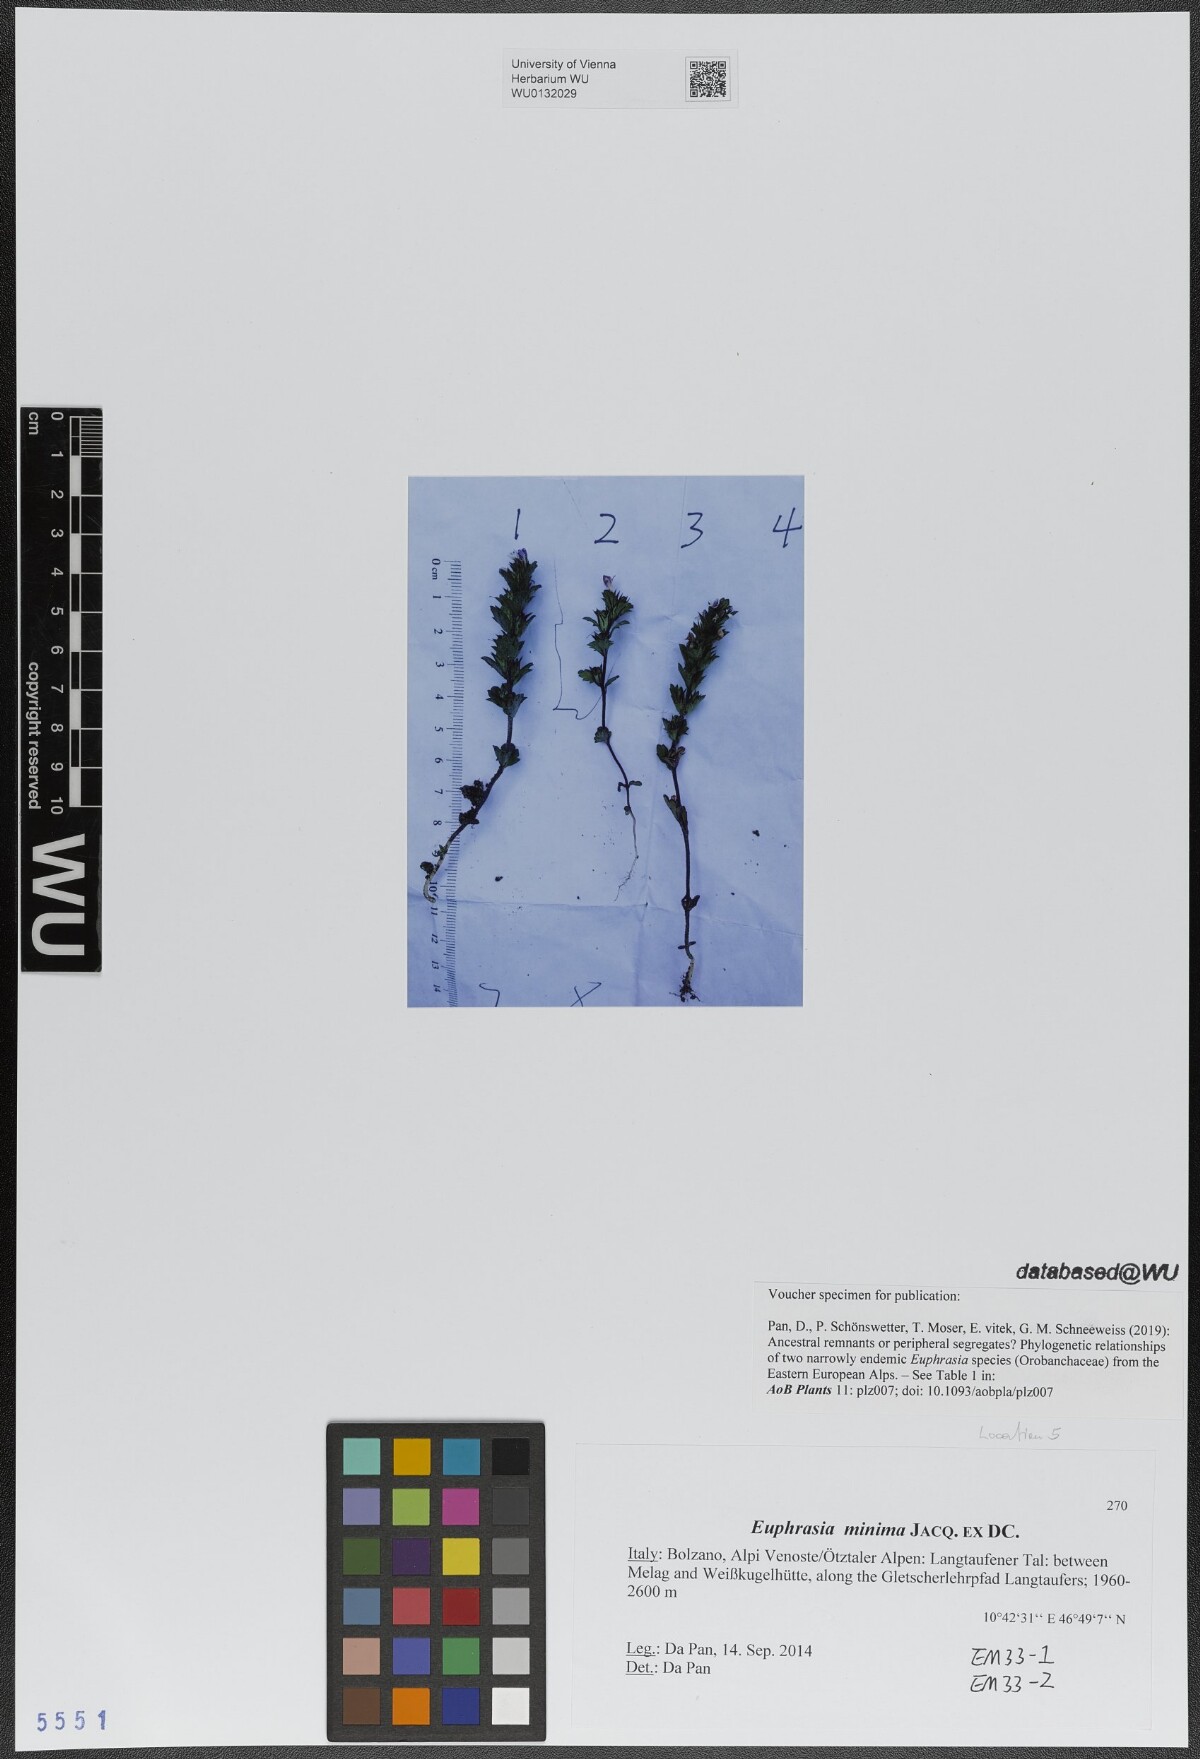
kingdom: Plantae
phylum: Tracheophyta
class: Magnoliopsida
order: Lamiales
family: Orobanchaceae
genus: Euphrasia
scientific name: Euphrasia minima
